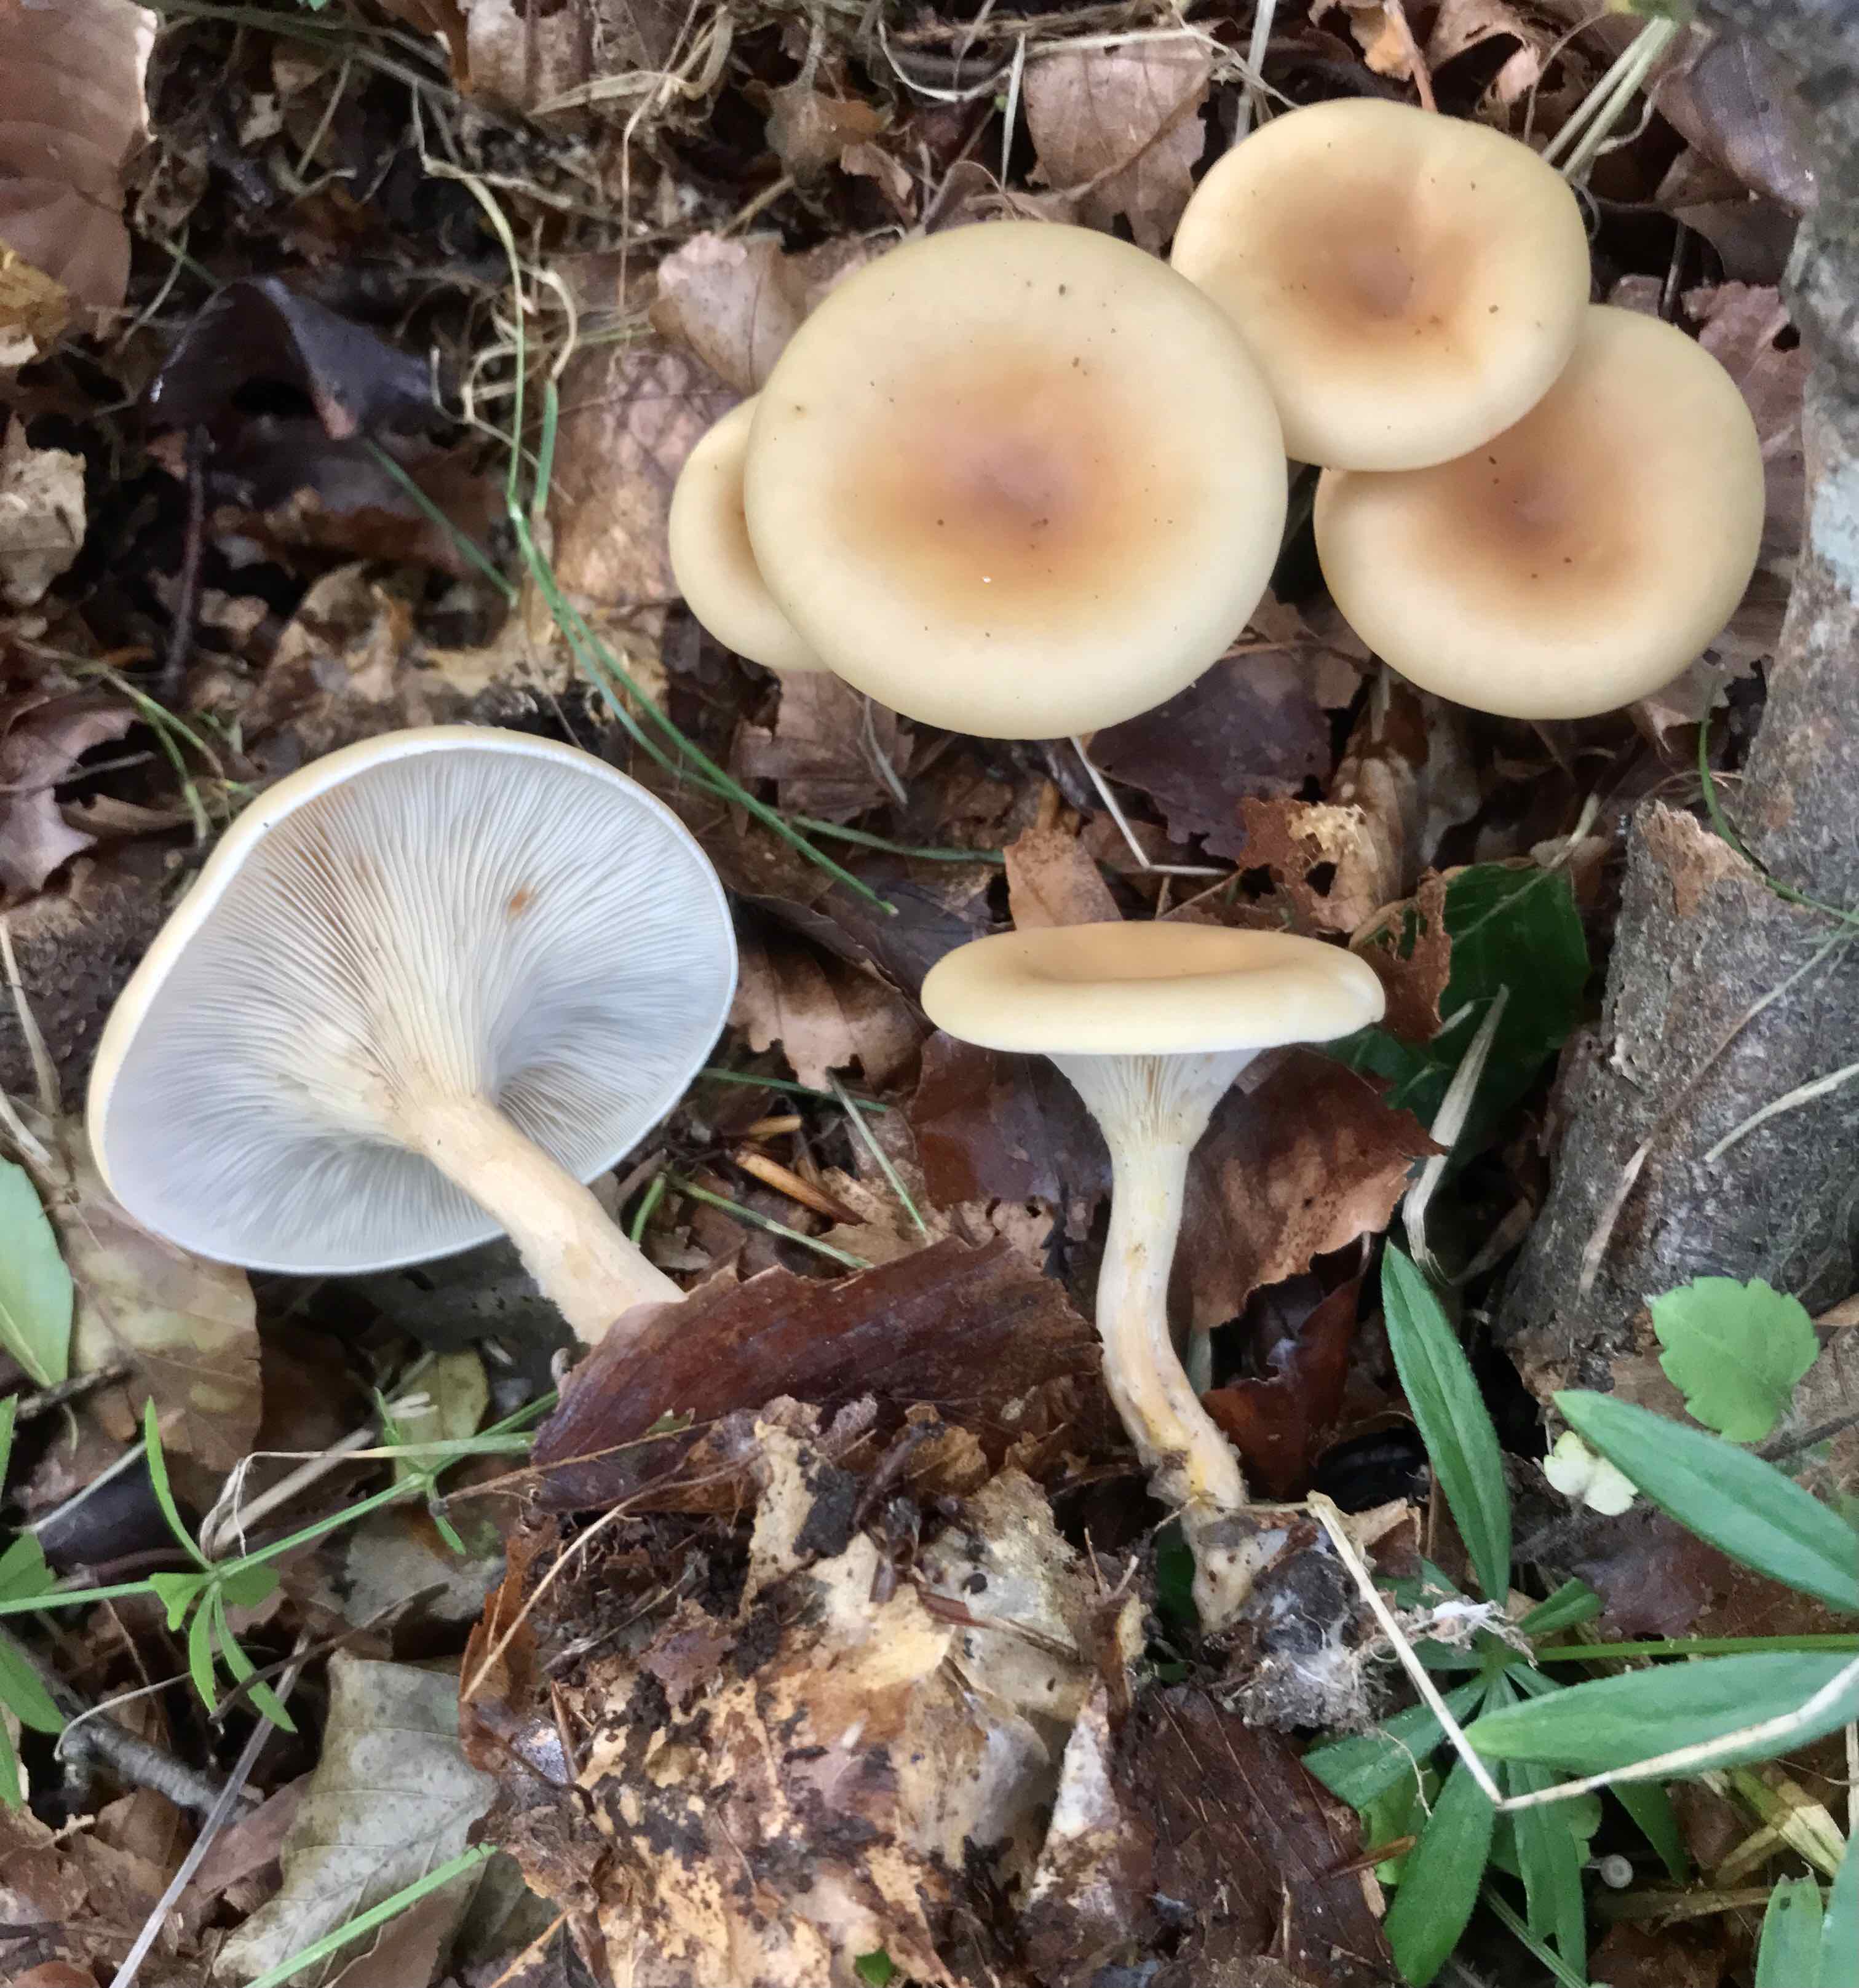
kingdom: Fungi
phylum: Basidiomycota
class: Agaricomycetes
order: Agaricales
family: Tricholomataceae
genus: Paralepista
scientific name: Paralepista flaccida
